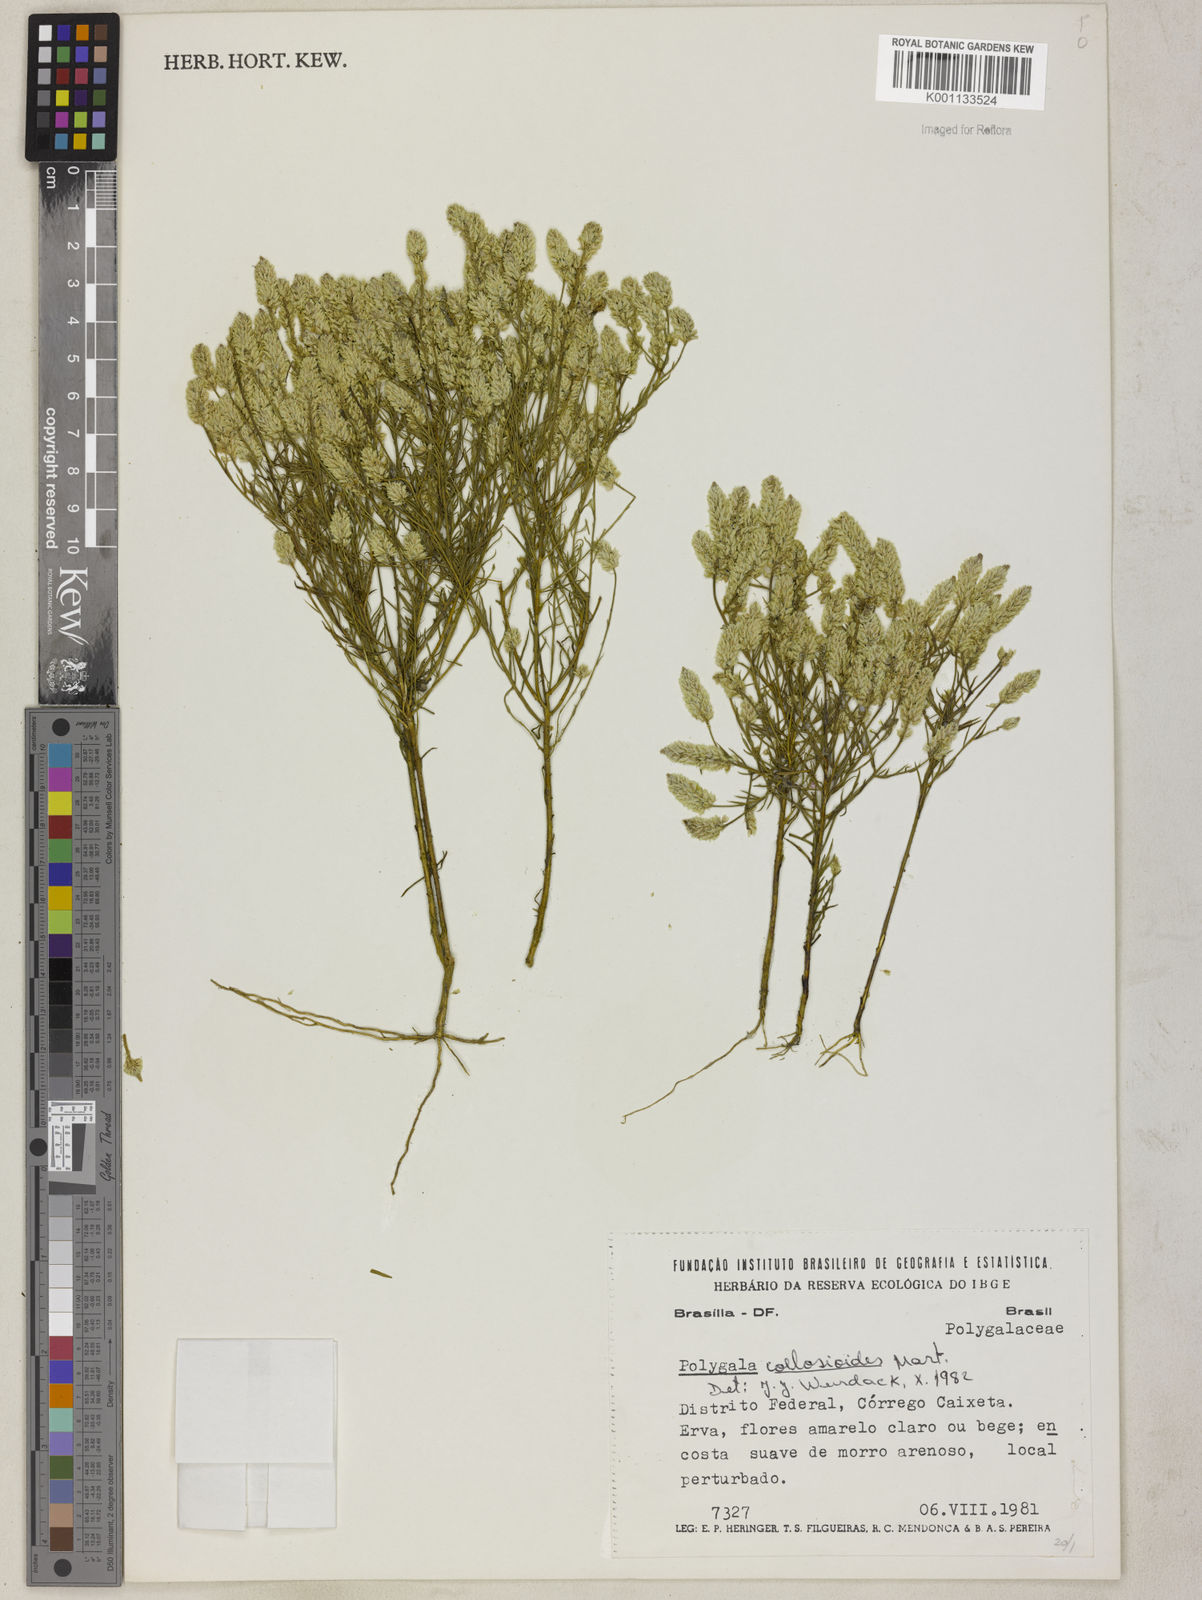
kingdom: Plantae
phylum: Tracheophyta
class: Magnoliopsida
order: Fabales
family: Polygalaceae
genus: Polygala
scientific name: Polygala celosioides
